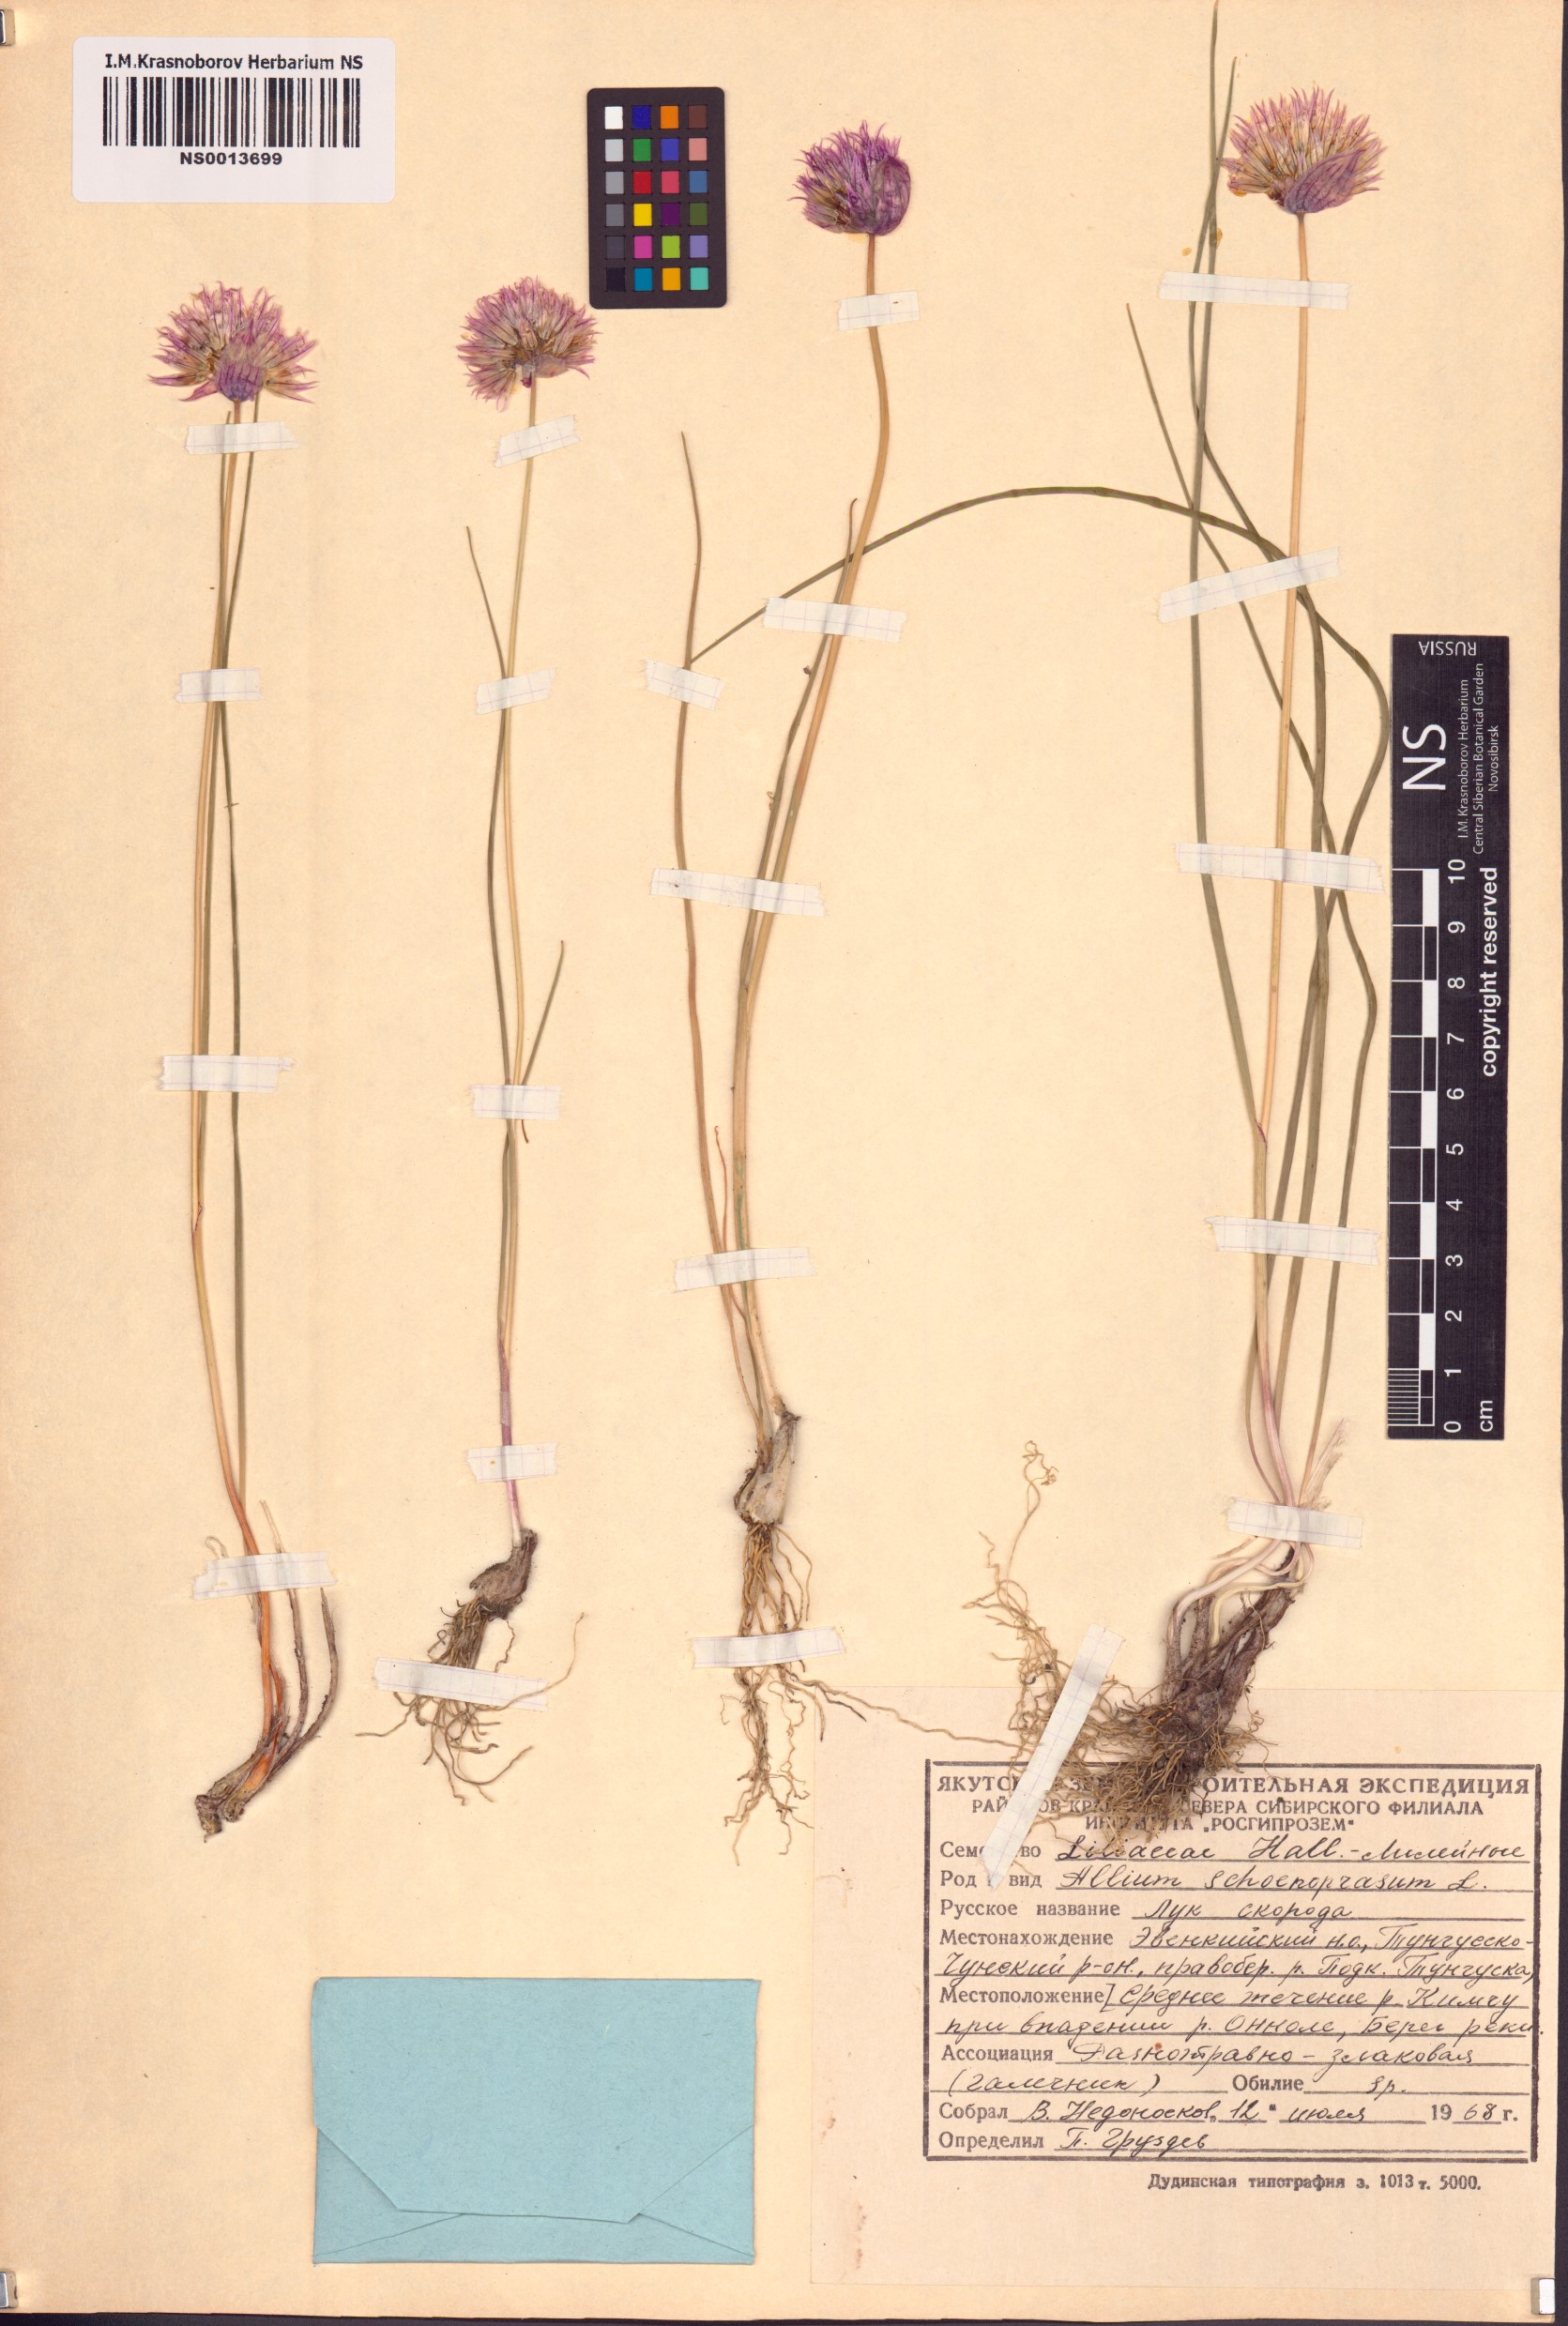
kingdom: Plantae
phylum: Tracheophyta
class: Liliopsida
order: Asparagales
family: Amaryllidaceae
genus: Allium
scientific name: Allium schoenoprasum
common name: Chives
